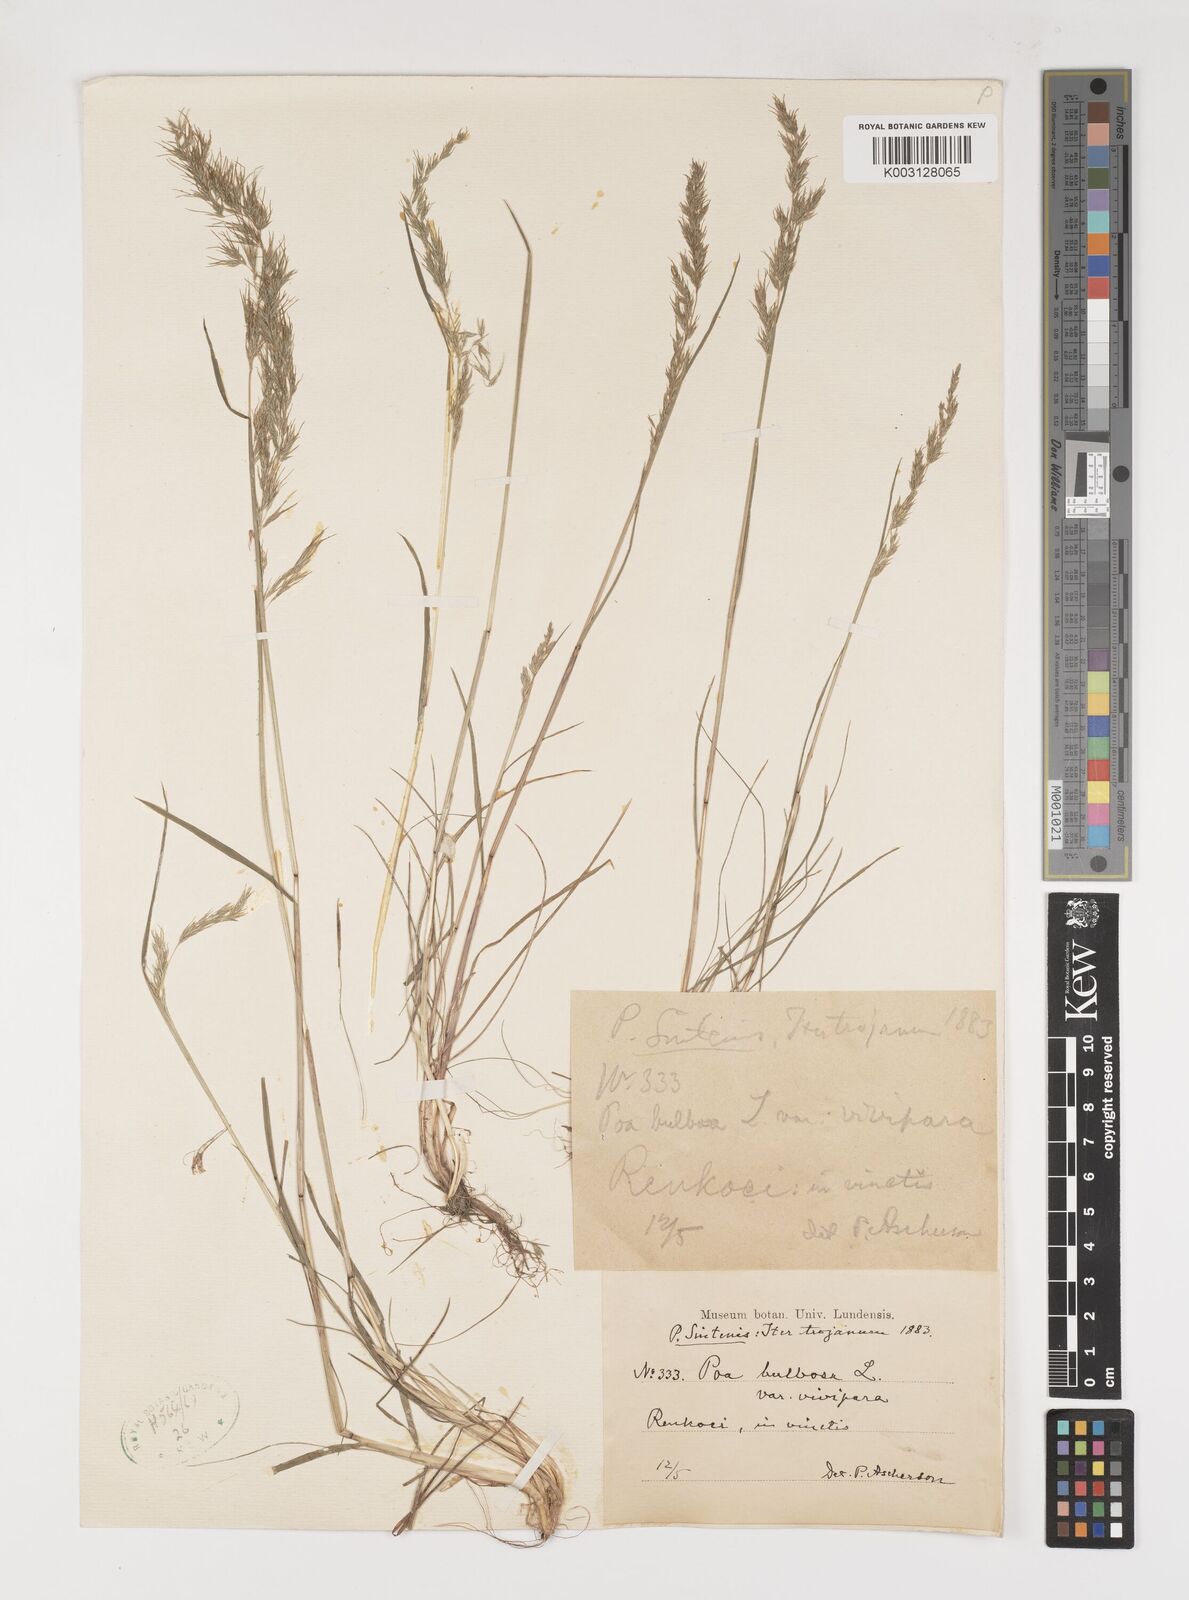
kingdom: Plantae
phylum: Tracheophyta
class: Liliopsida
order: Poales
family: Poaceae
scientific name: Poaceae
